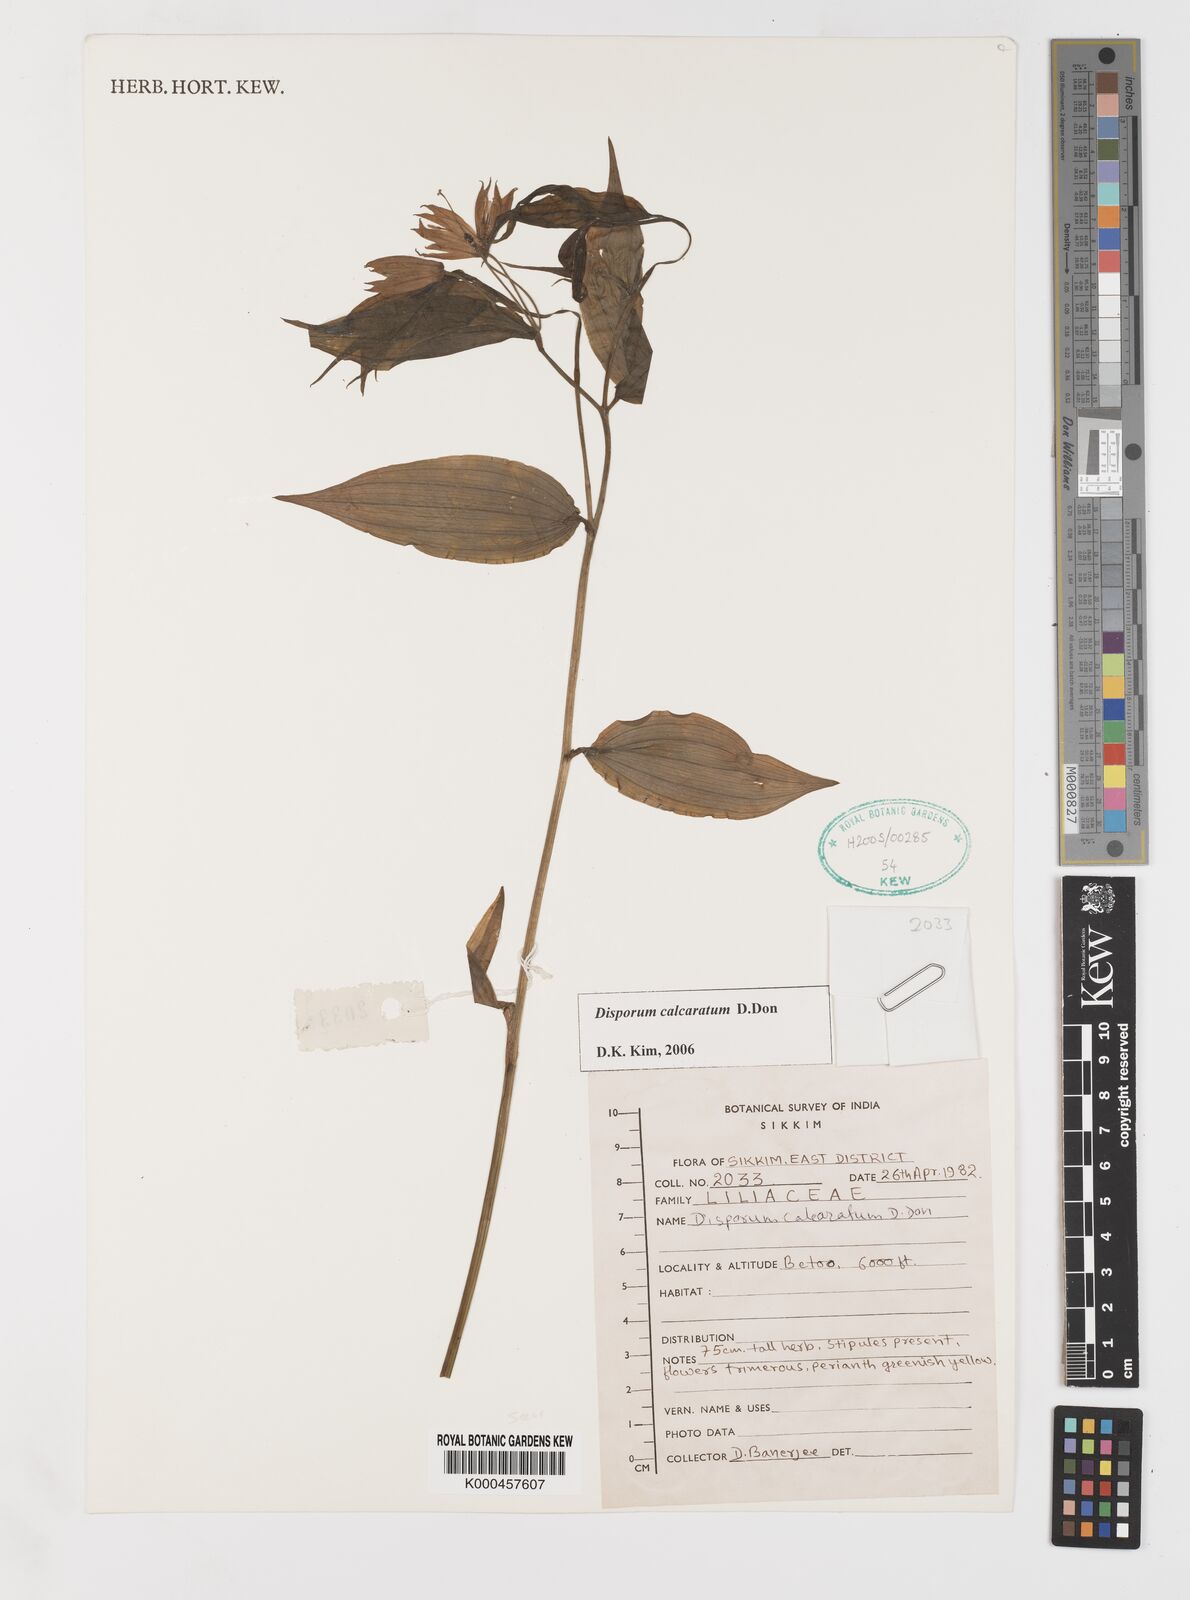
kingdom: Plantae
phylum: Tracheophyta
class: Liliopsida
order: Liliales
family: Colchicaceae
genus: Disporum
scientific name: Disporum calcaratum
